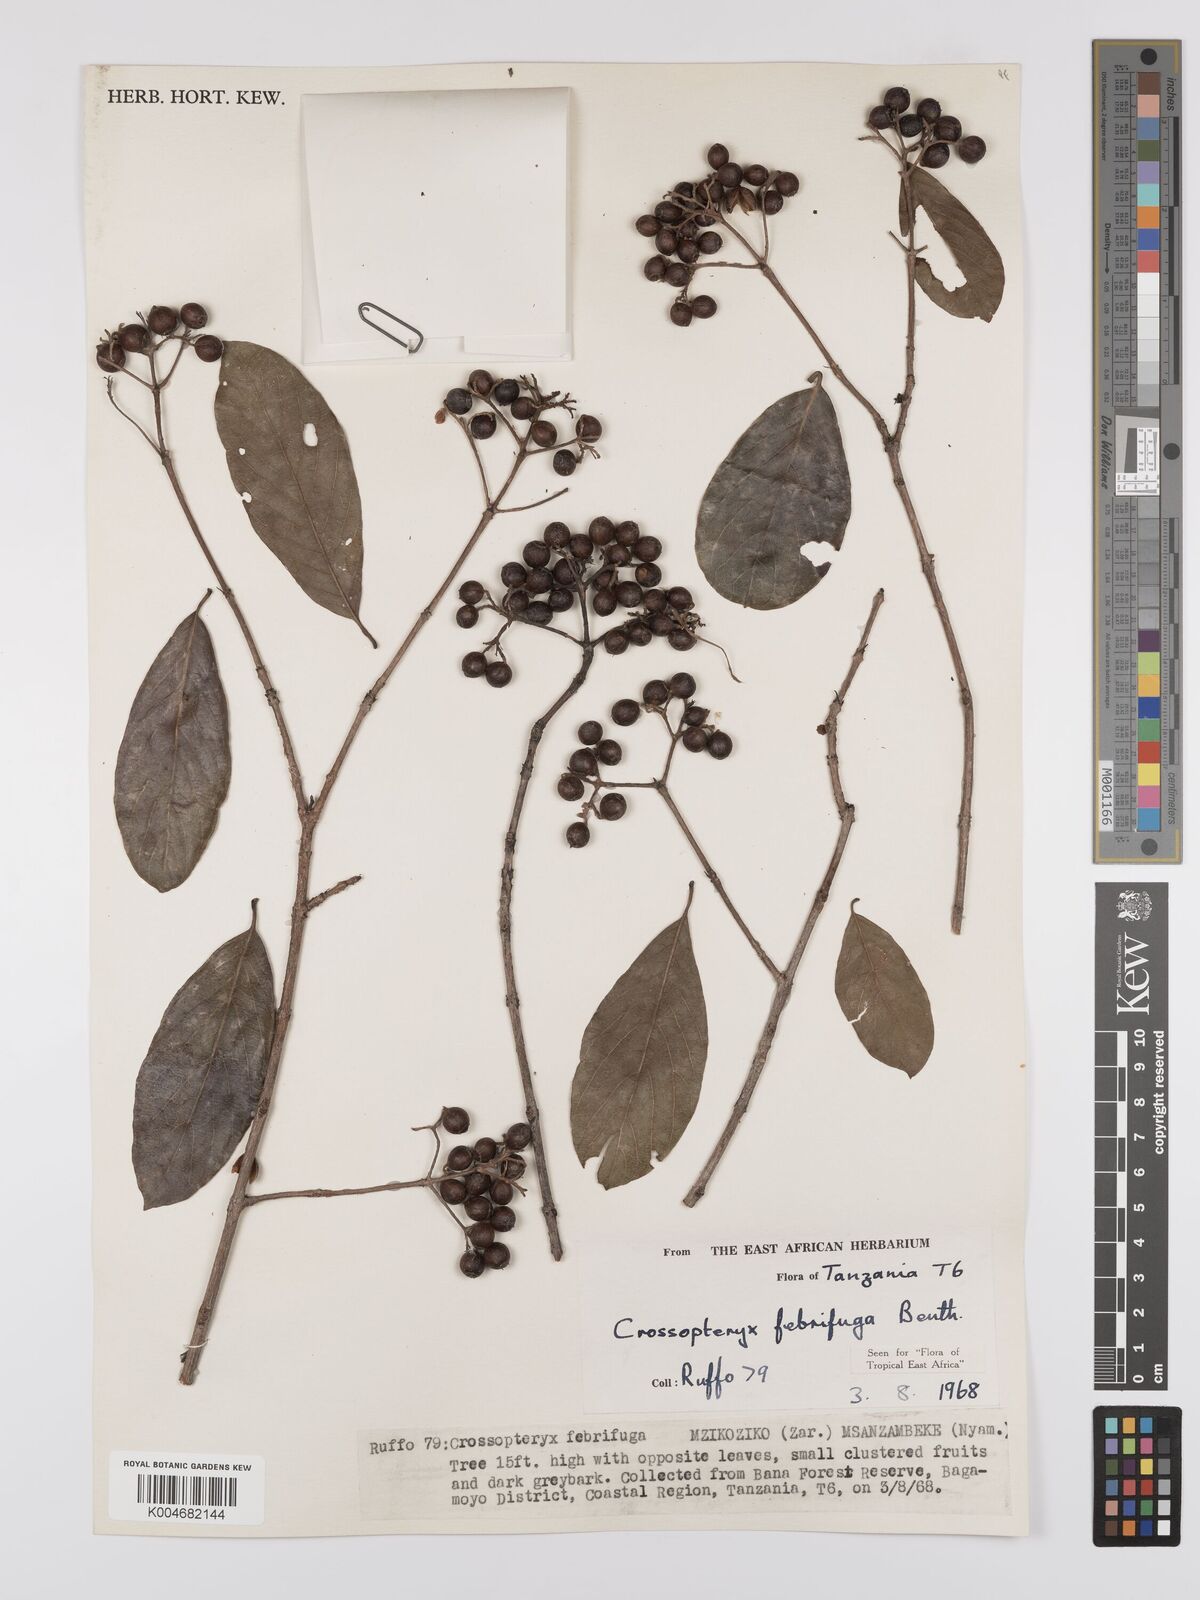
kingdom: Plantae
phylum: Tracheophyta
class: Magnoliopsida
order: Gentianales
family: Rubiaceae
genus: Crossopteryx
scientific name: Crossopteryx febrifuga
